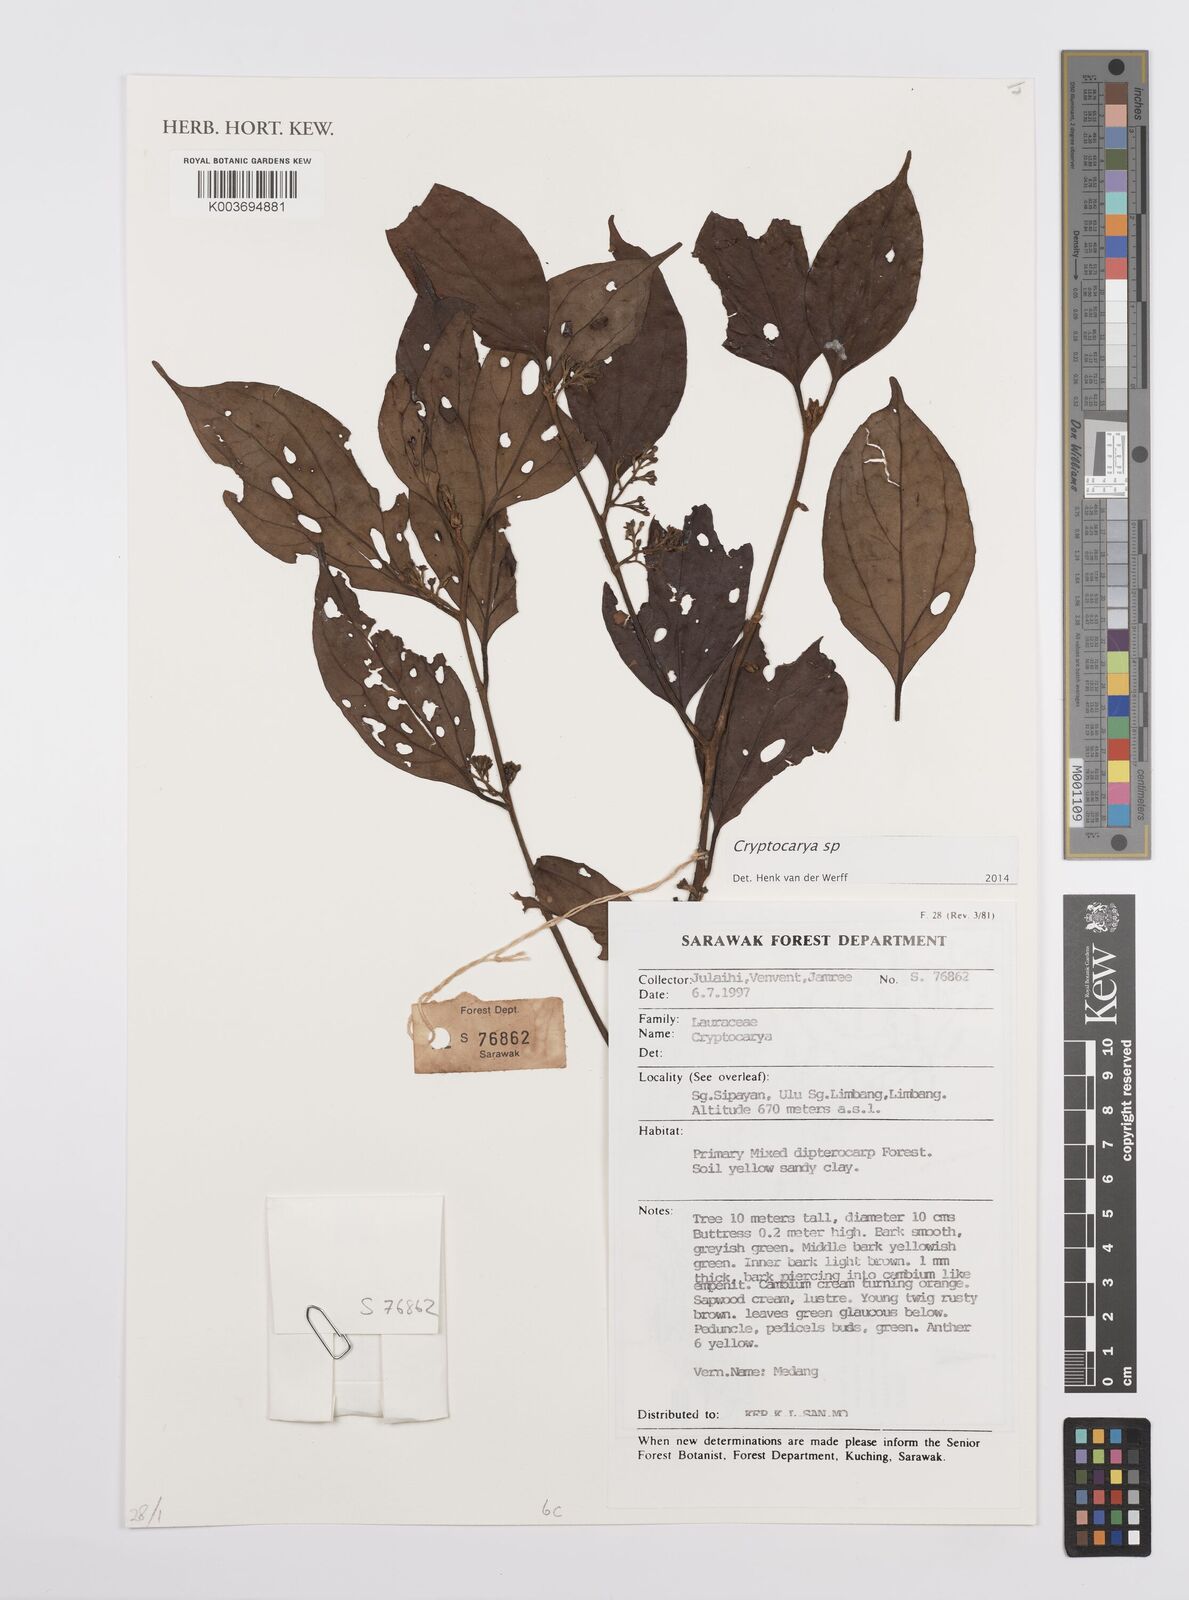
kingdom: Plantae
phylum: Tracheophyta
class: Magnoliopsida
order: Laurales
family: Lauraceae
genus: Cryptocarya
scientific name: Cryptocarya
